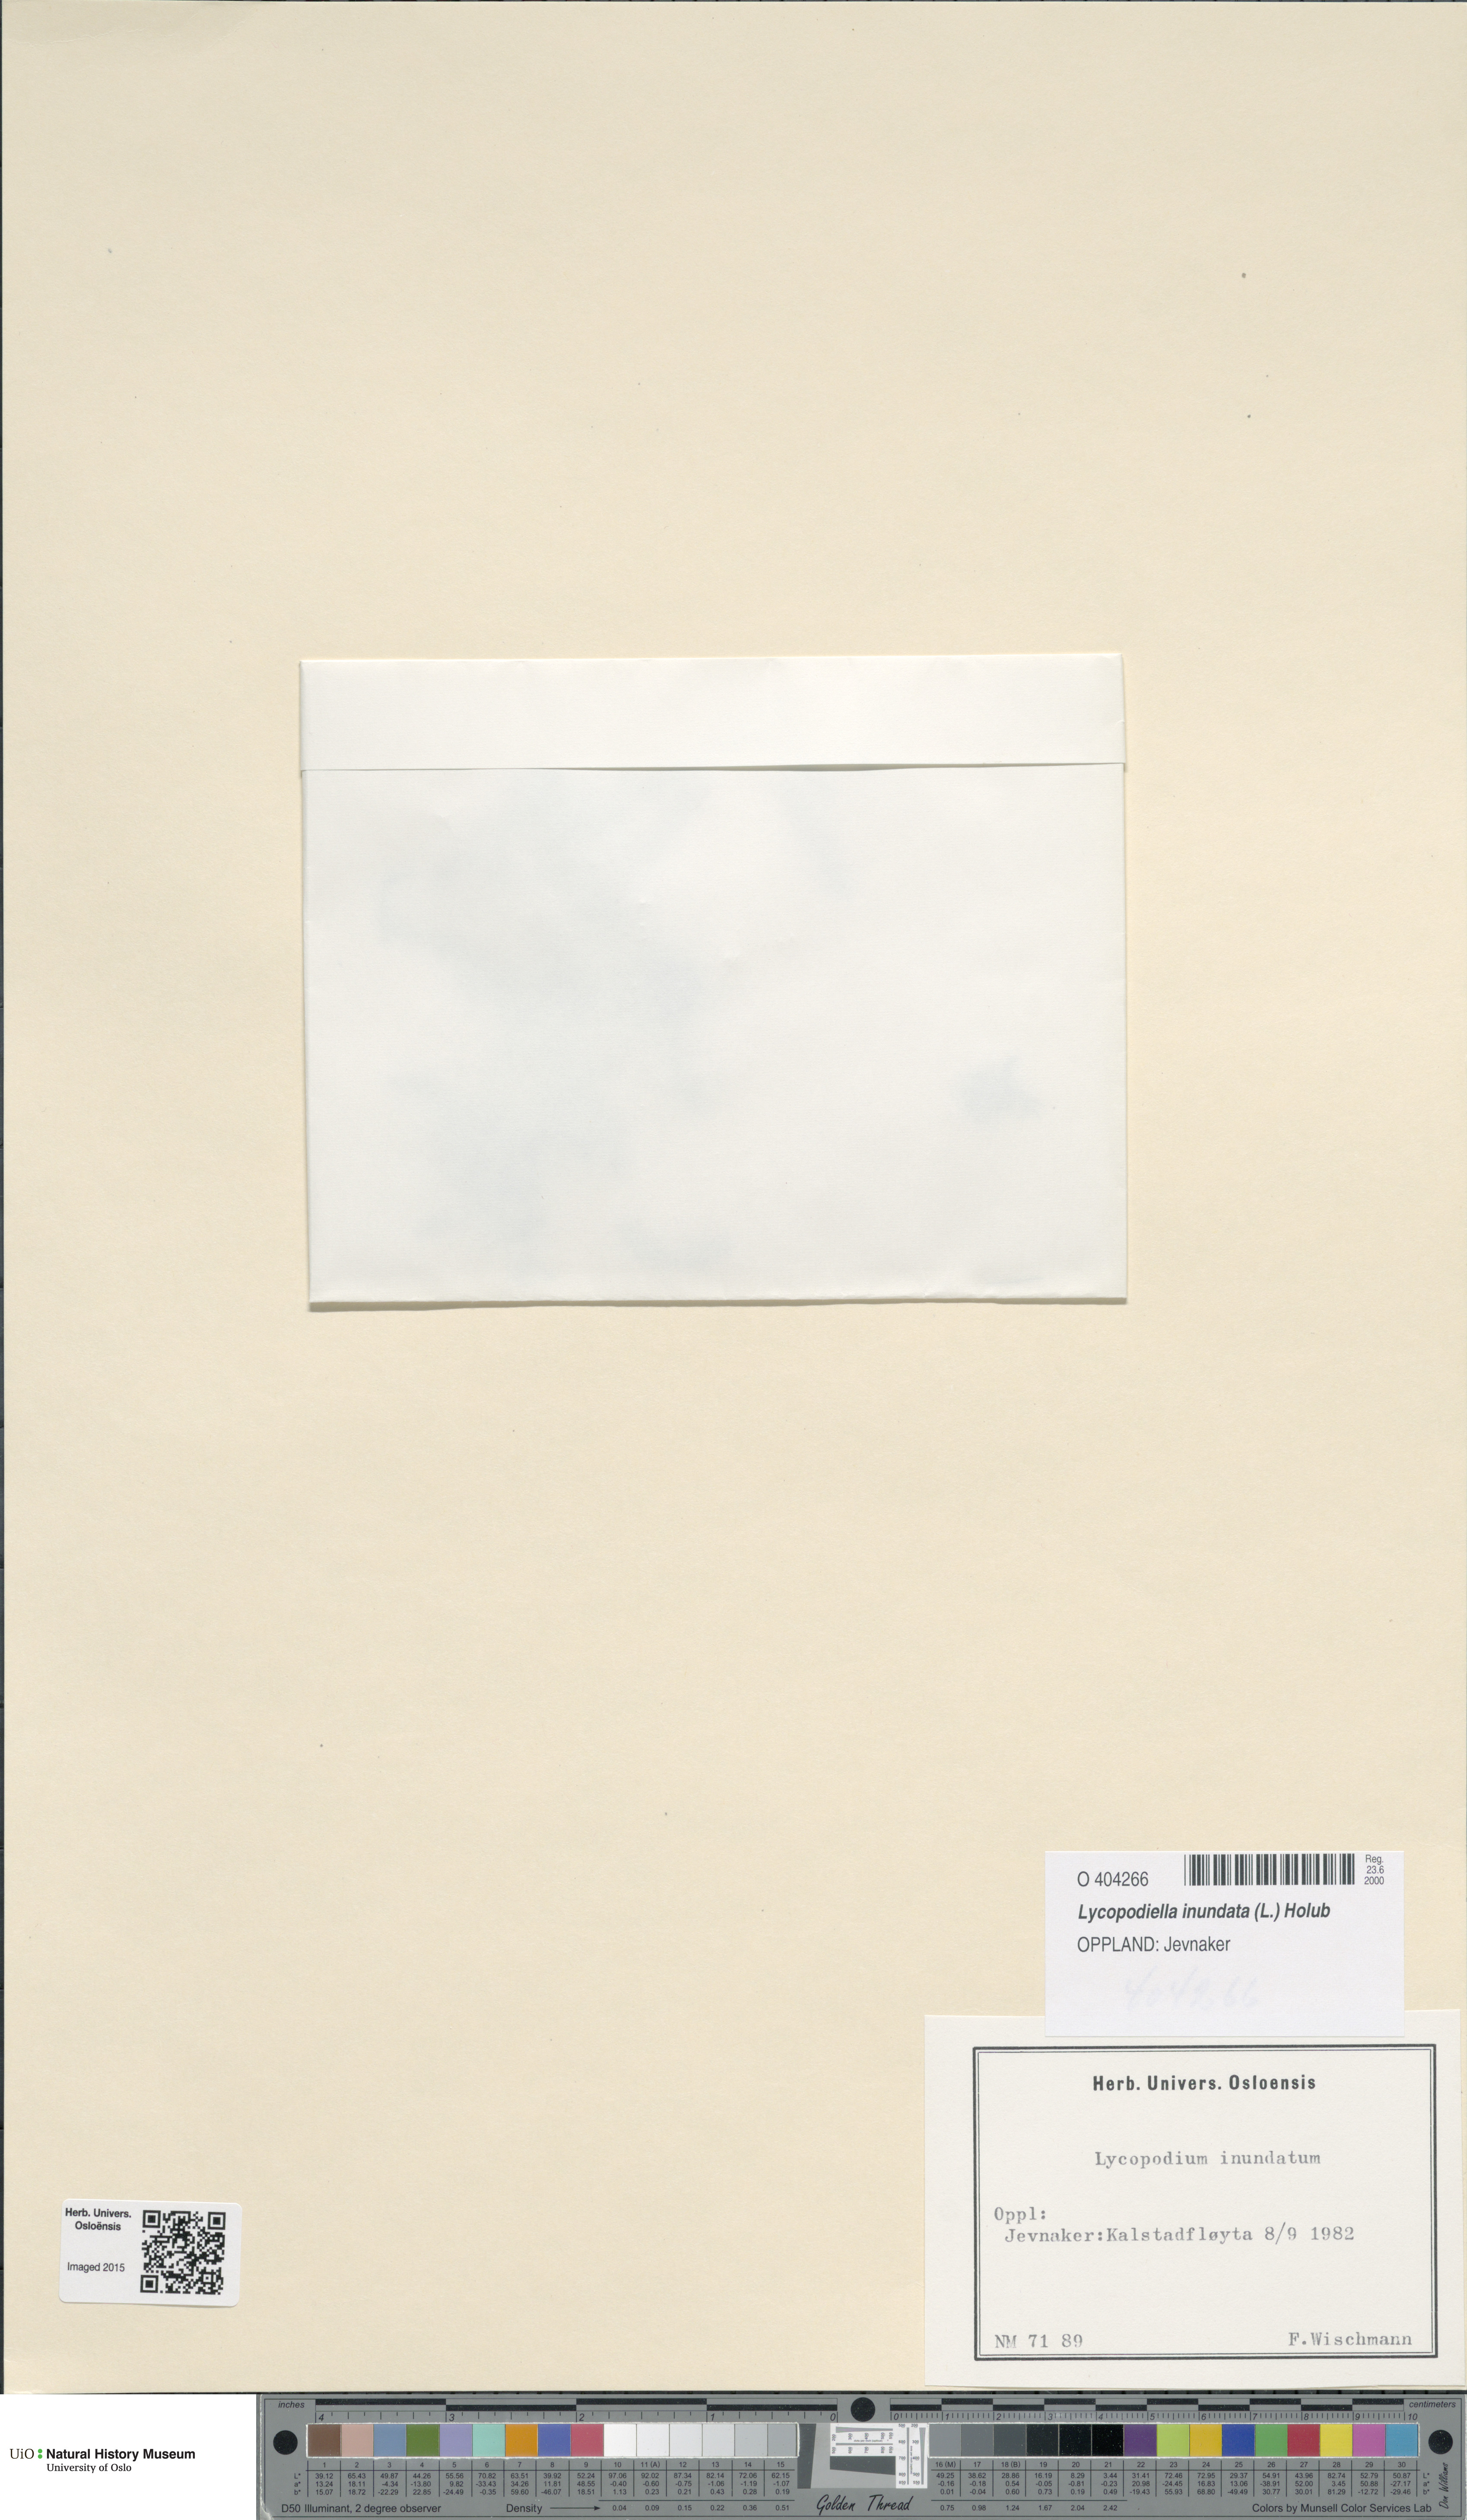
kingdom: Plantae
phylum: Tracheophyta
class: Lycopodiopsida
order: Lycopodiales
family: Lycopodiaceae
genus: Lycopodiella
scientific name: Lycopodiella inundata
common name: Marsh clubmoss
